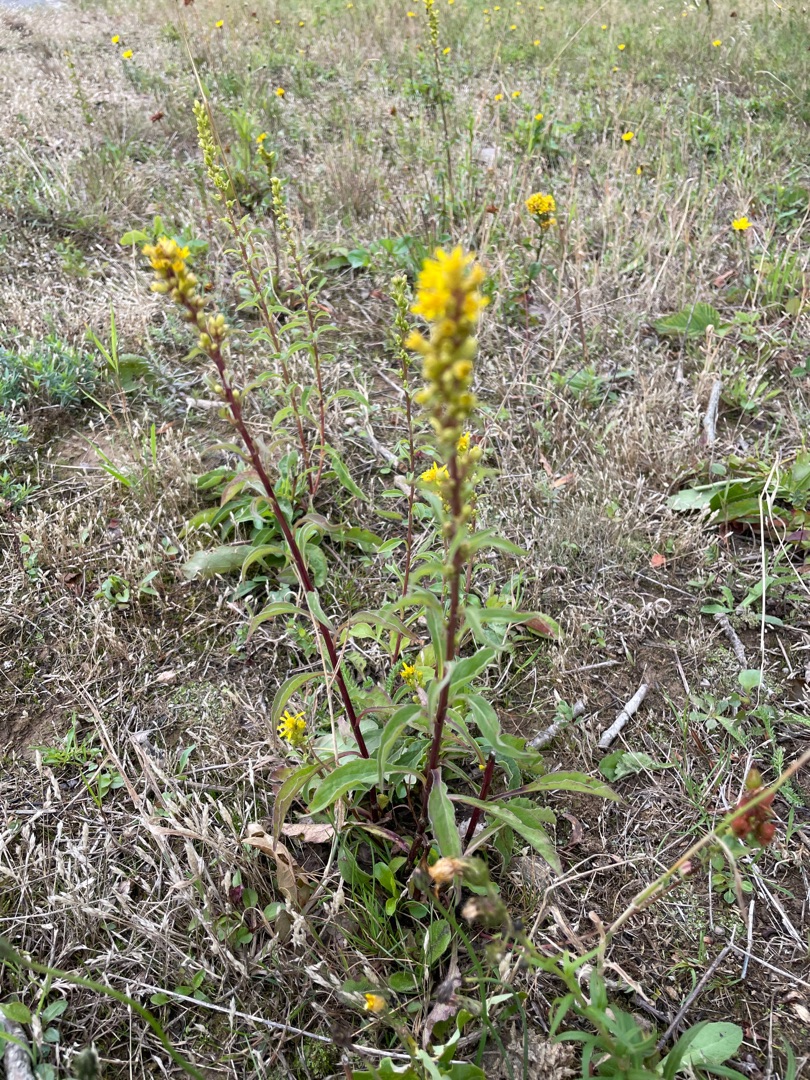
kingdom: Plantae
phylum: Tracheophyta
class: Magnoliopsida
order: Asterales
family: Asteraceae
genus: Solidago
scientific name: Solidago virgaurea
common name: Almindelig gyldenris
